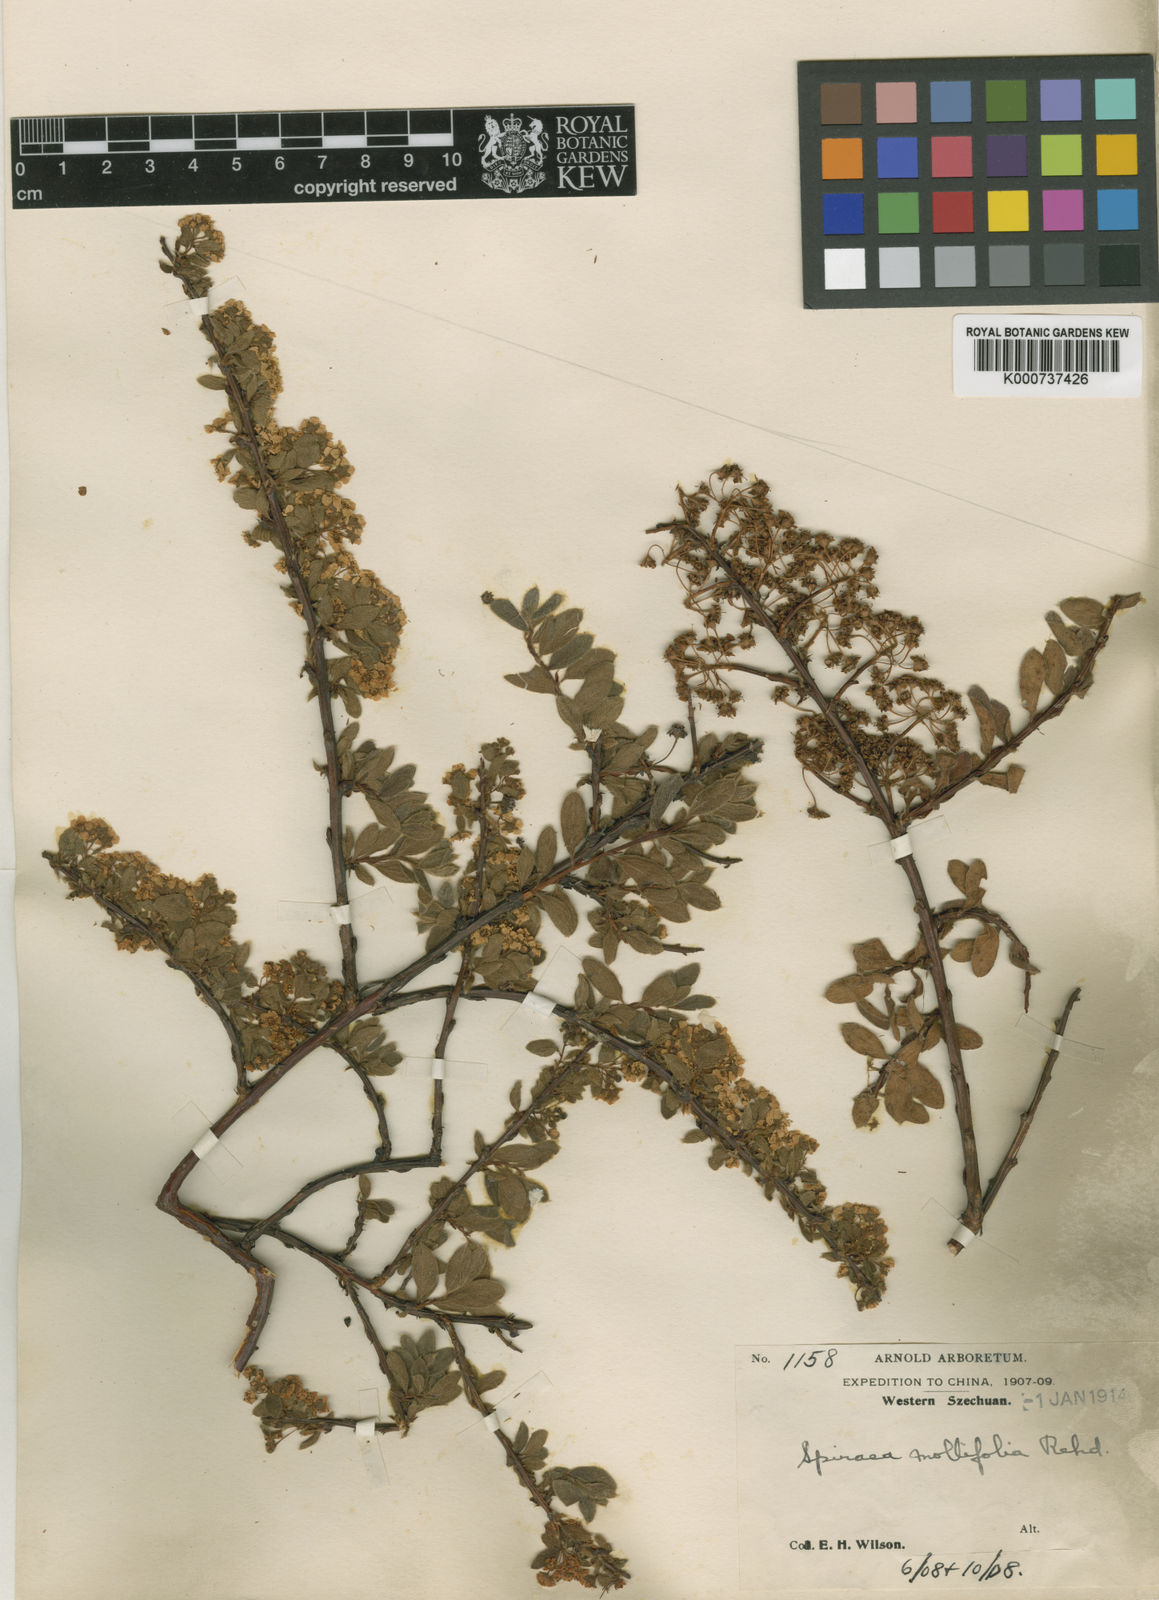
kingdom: Plantae
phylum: Tracheophyta
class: Magnoliopsida
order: Rosales
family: Rosaceae
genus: Spiraea
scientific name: Spiraea mollifolia
